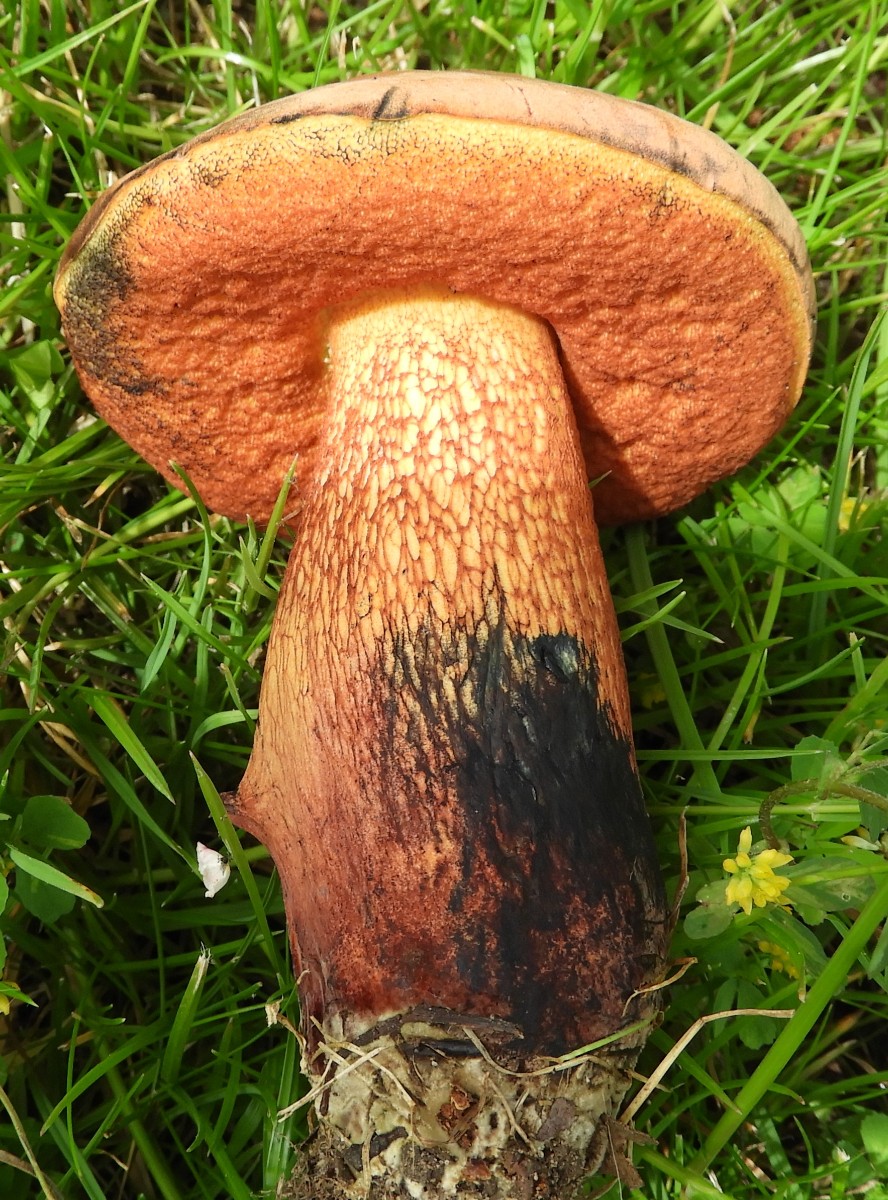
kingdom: Fungi
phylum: Basidiomycota
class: Agaricomycetes
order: Boletales
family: Boletaceae
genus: Suillellus
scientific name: Suillellus luridus
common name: netstokket indigorørhat
